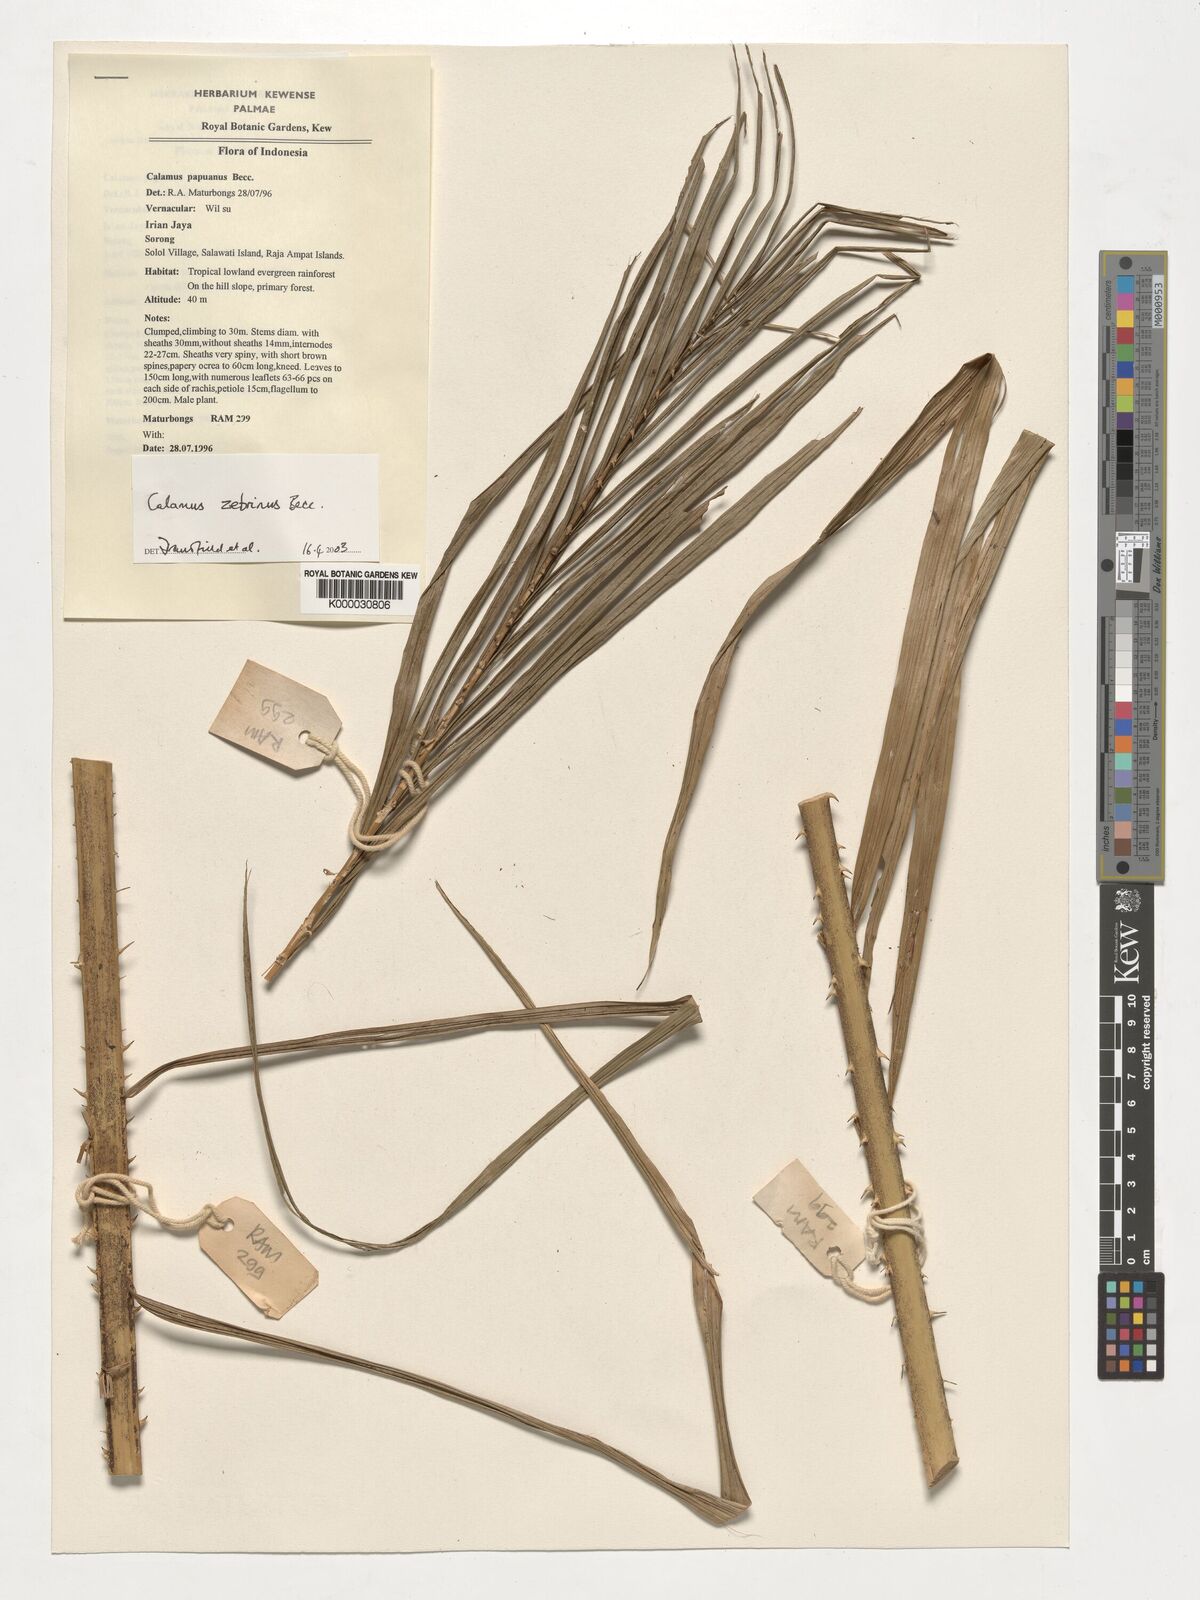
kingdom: Plantae
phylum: Tracheophyta
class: Liliopsida
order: Arecales
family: Arecaceae
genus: Calamus
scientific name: Calamus zebrinus
